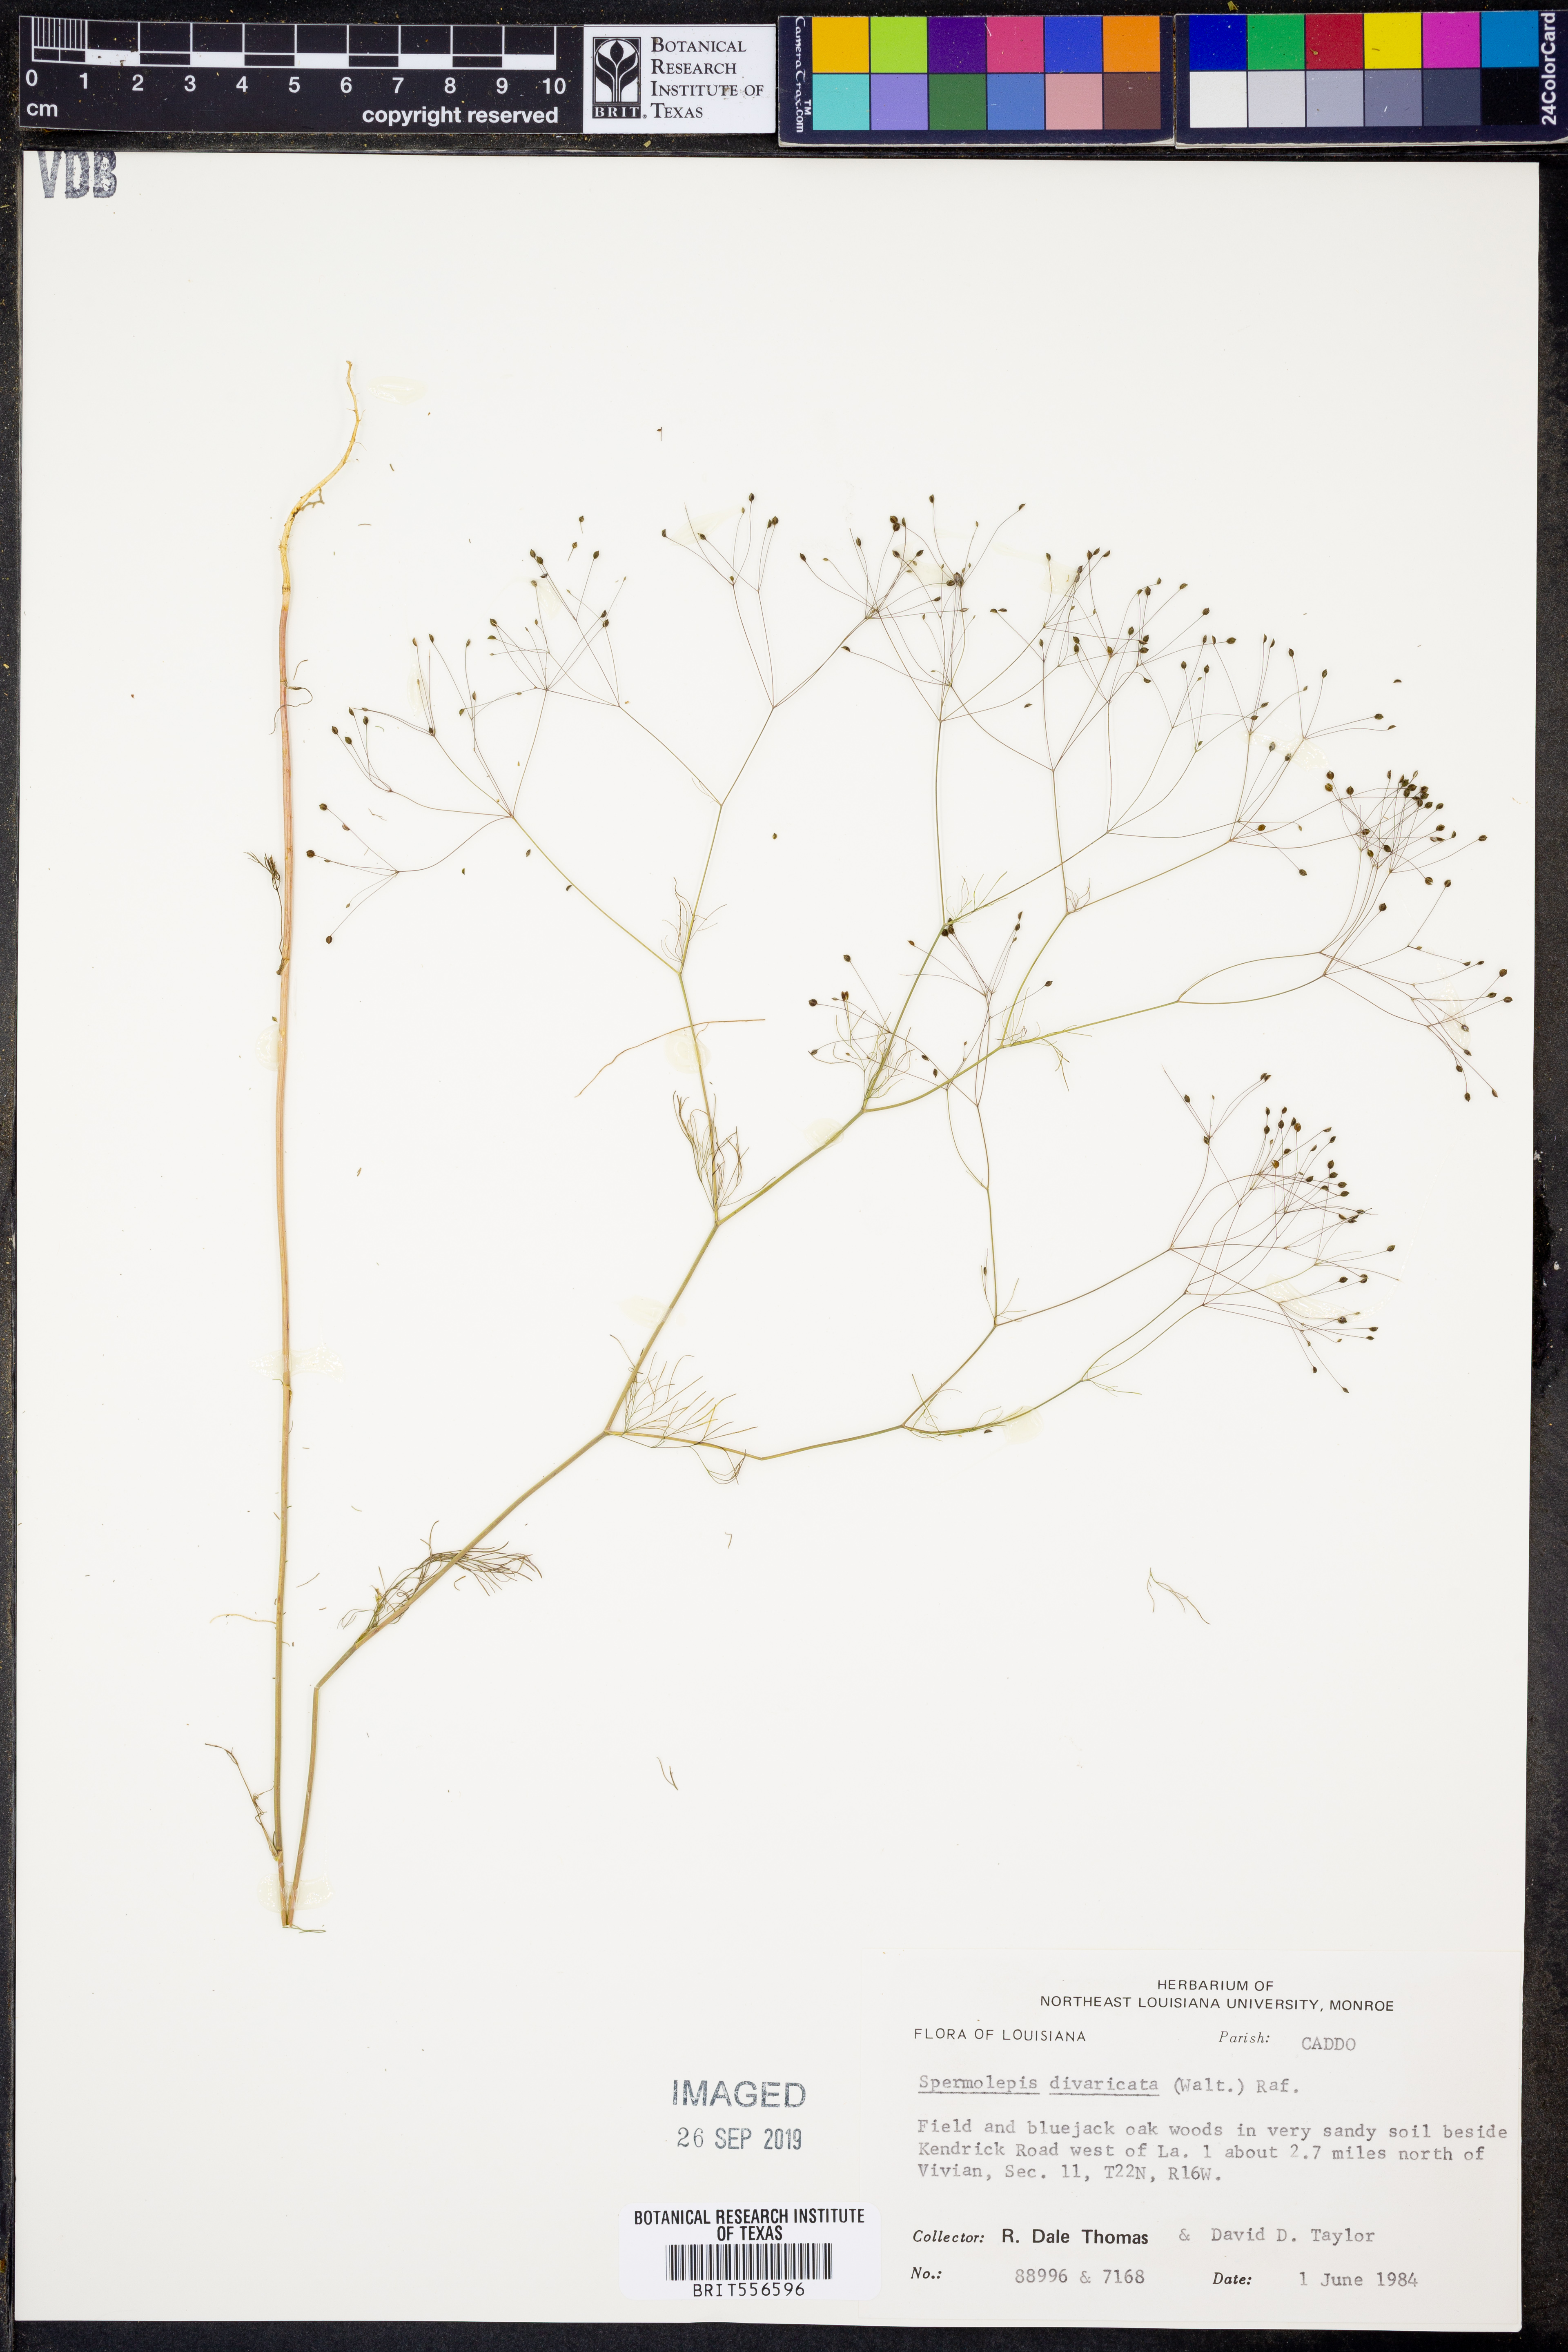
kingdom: Plantae
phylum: Tracheophyta
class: Magnoliopsida
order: Apiales
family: Apiaceae
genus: Spermolepis
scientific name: Spermolepis divaricata
